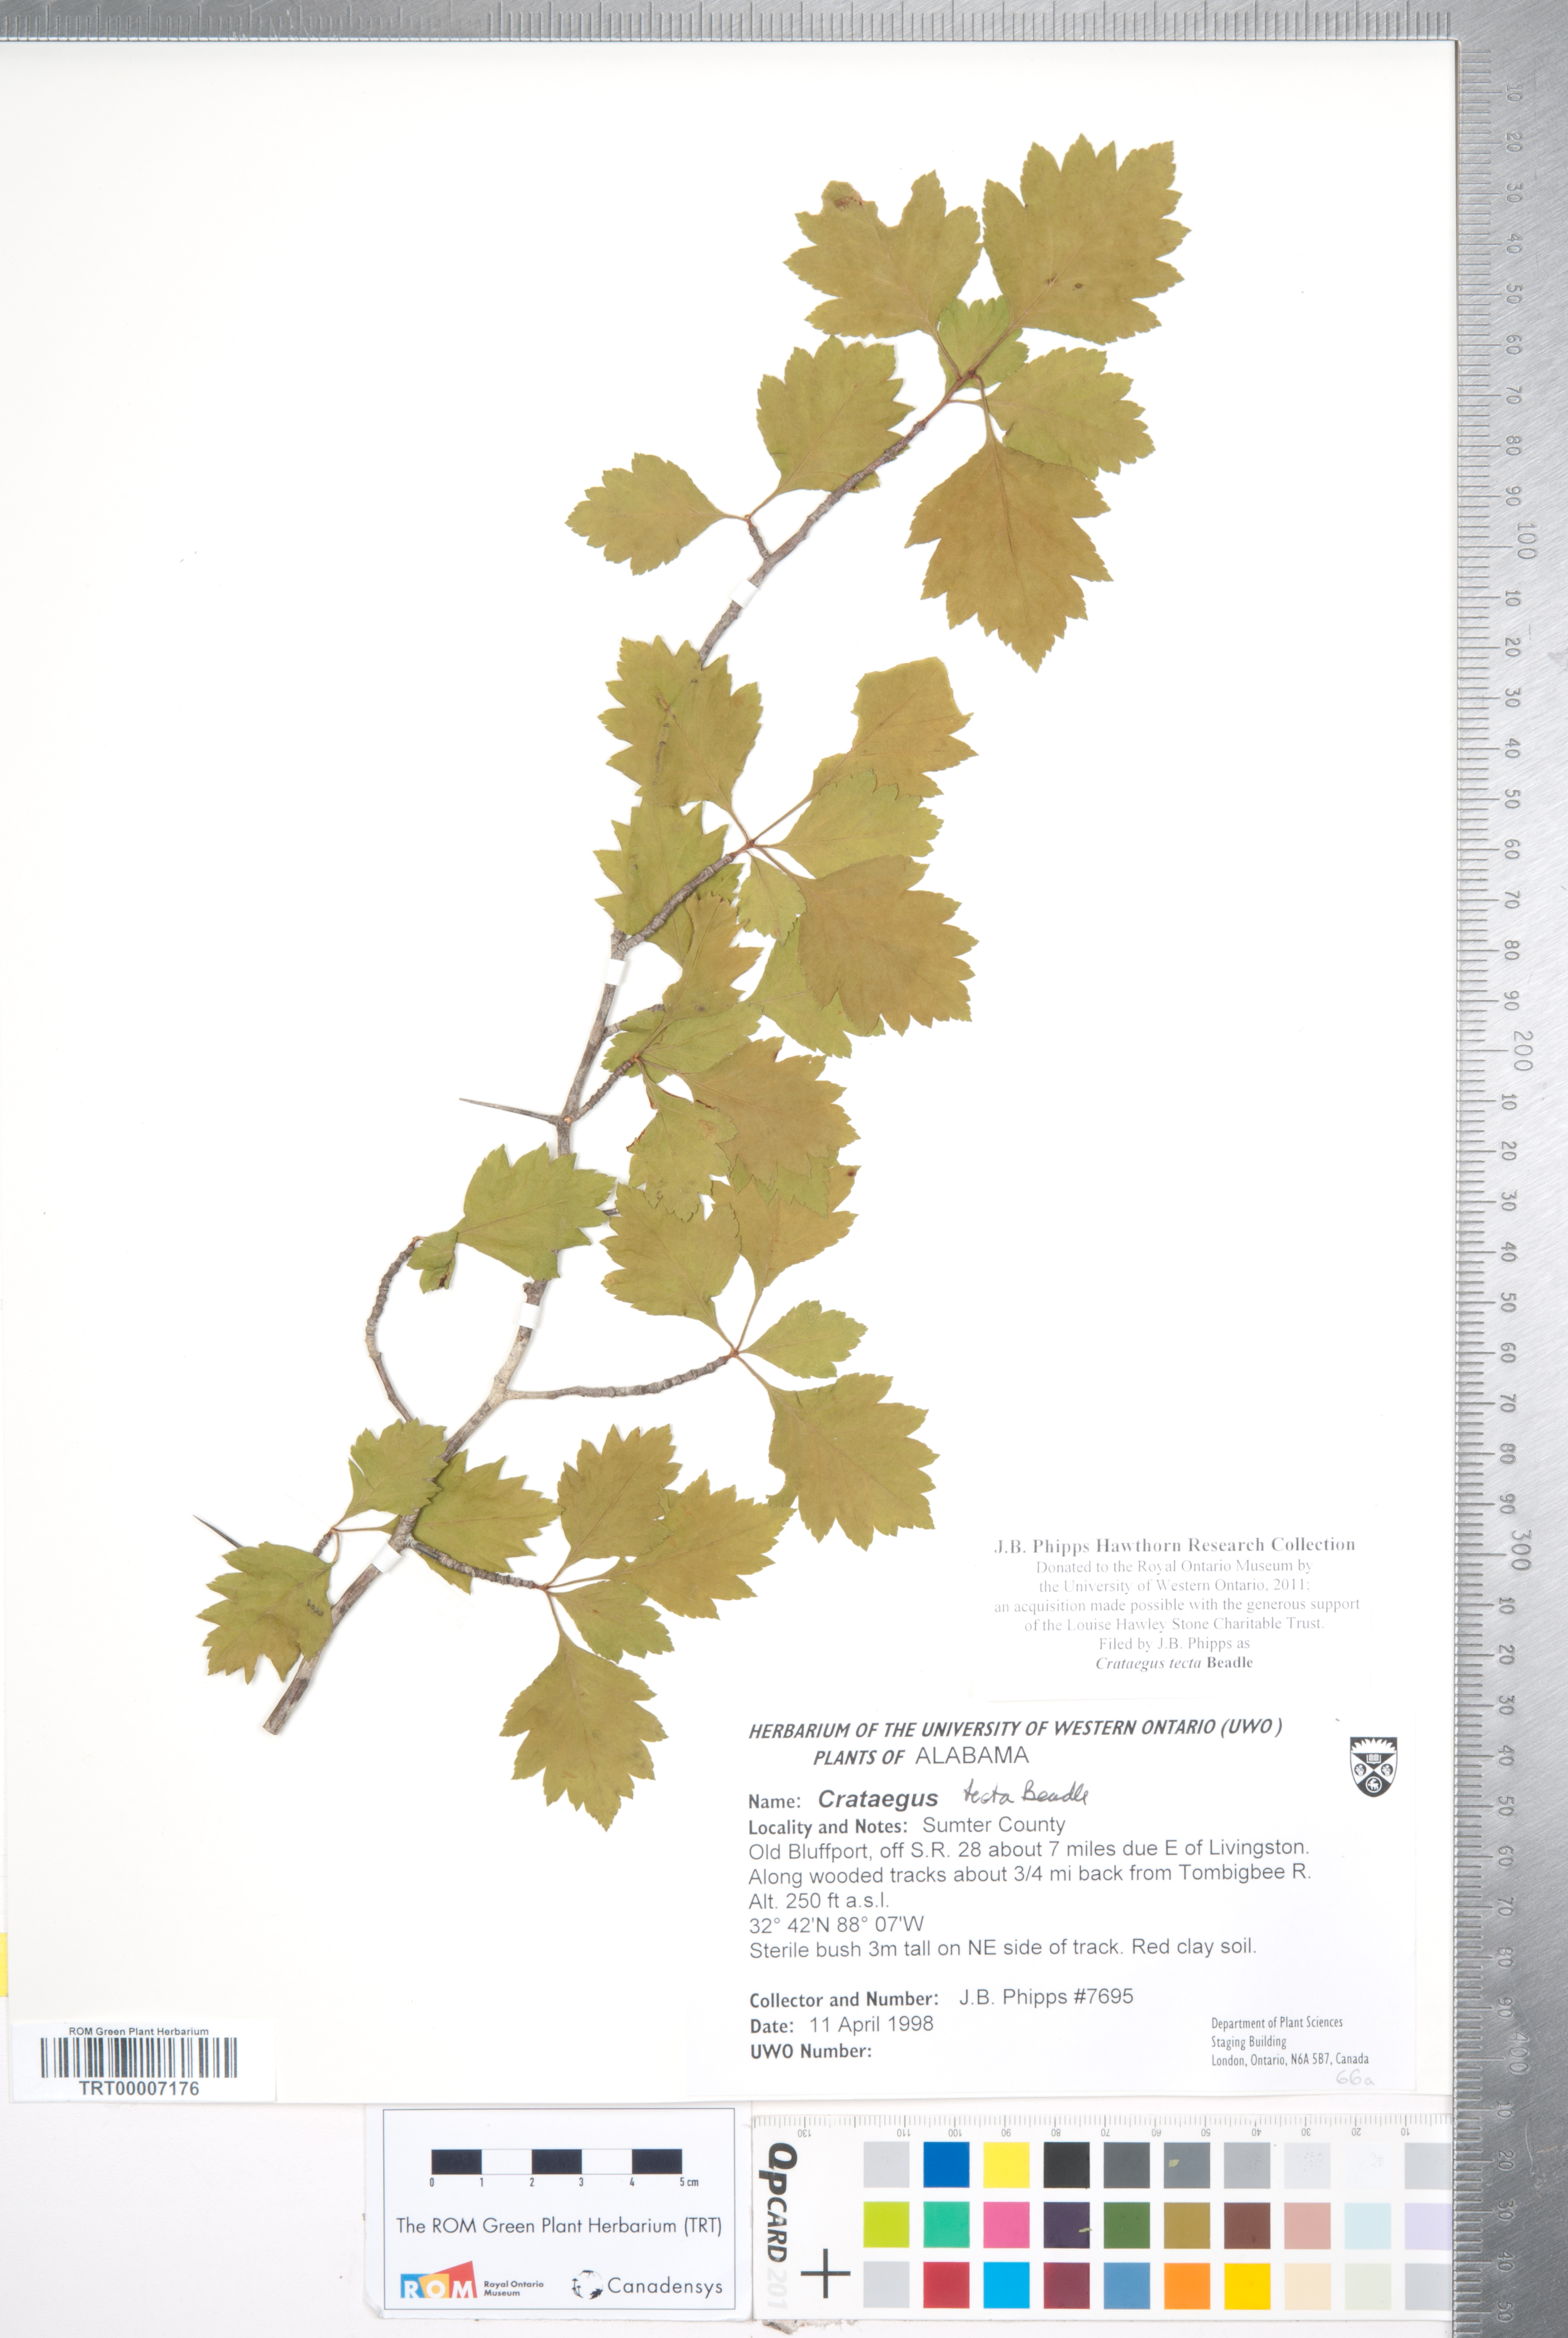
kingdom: Plantae
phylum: Tracheophyta
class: Magnoliopsida
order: Rosales
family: Rosaceae
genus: Crataegus
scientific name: Crataegus pulcherrima
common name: Beautiful hawthorn
